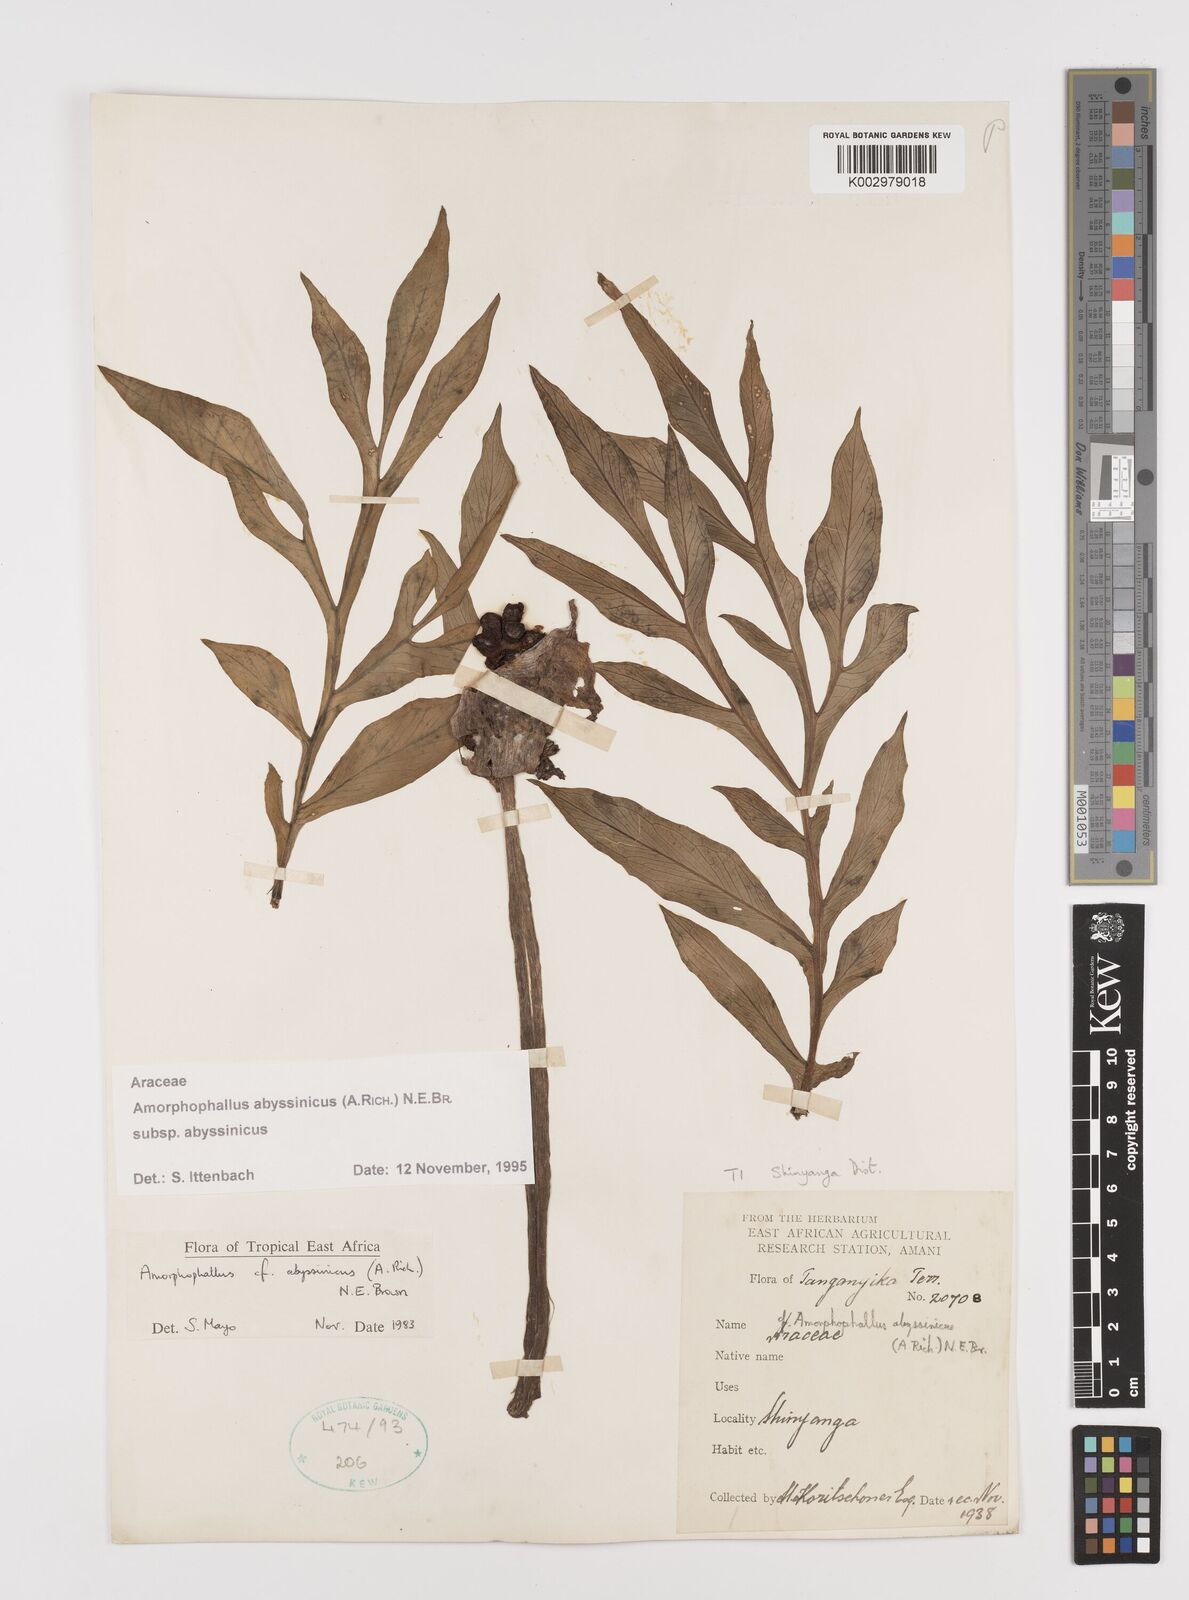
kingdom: Plantae
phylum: Tracheophyta
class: Liliopsida
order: Alismatales
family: Araceae
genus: Amorphophallus
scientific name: Amorphophallus abyssinicus
